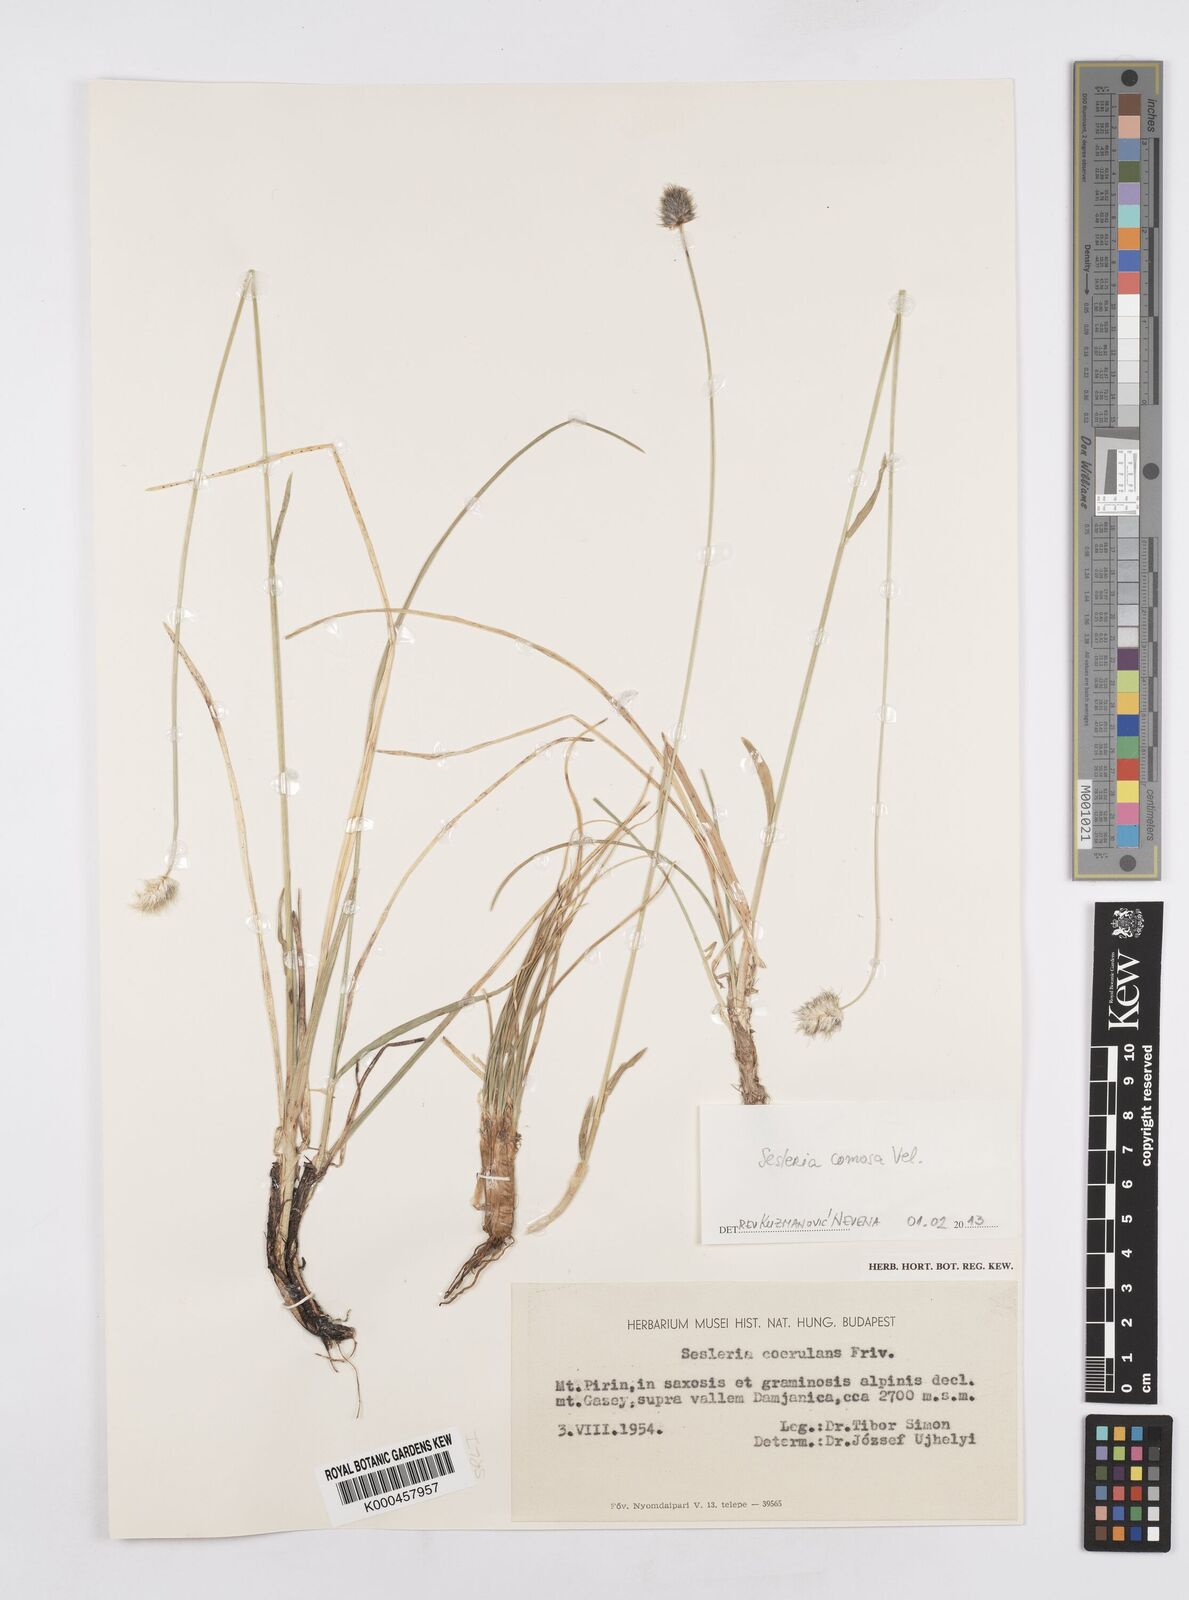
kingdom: Plantae
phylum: Tracheophyta
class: Liliopsida
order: Poales
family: Poaceae
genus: Sesleria
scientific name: Sesleria coerulans
